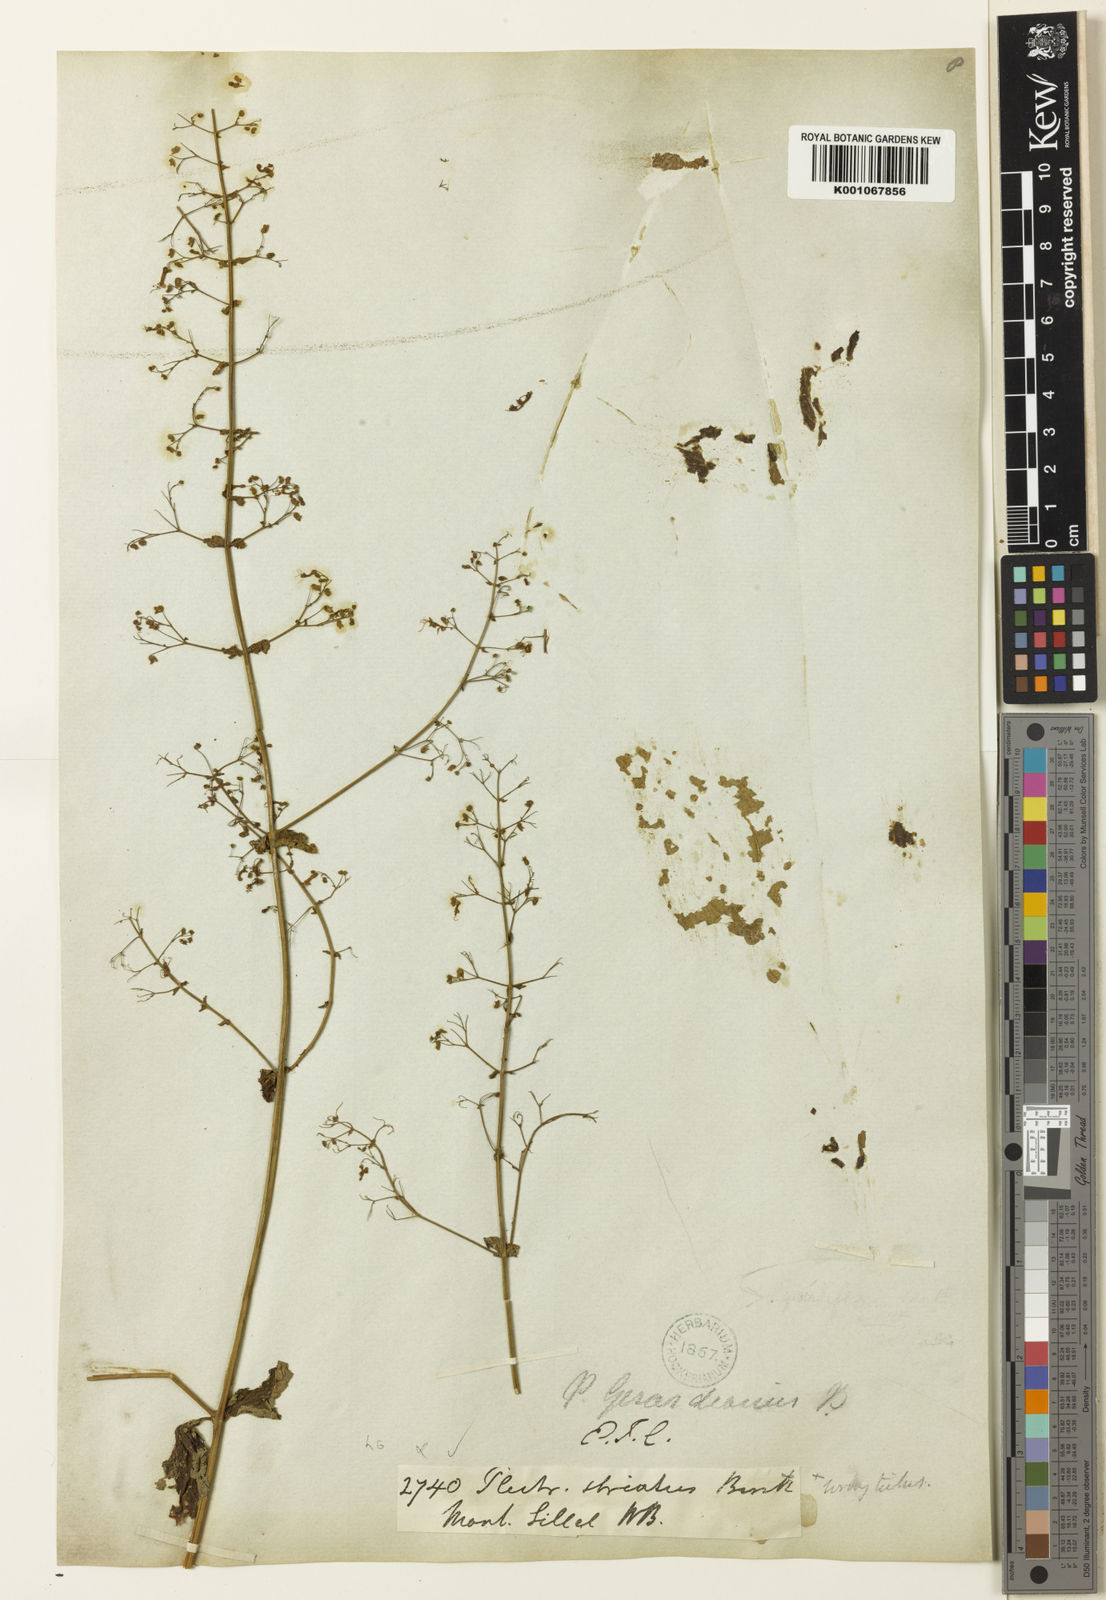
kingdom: Plantae
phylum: Tracheophyta
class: Magnoliopsida
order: Lamiales
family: Lamiaceae
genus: Isodon
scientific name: Isodon lophanthoides
